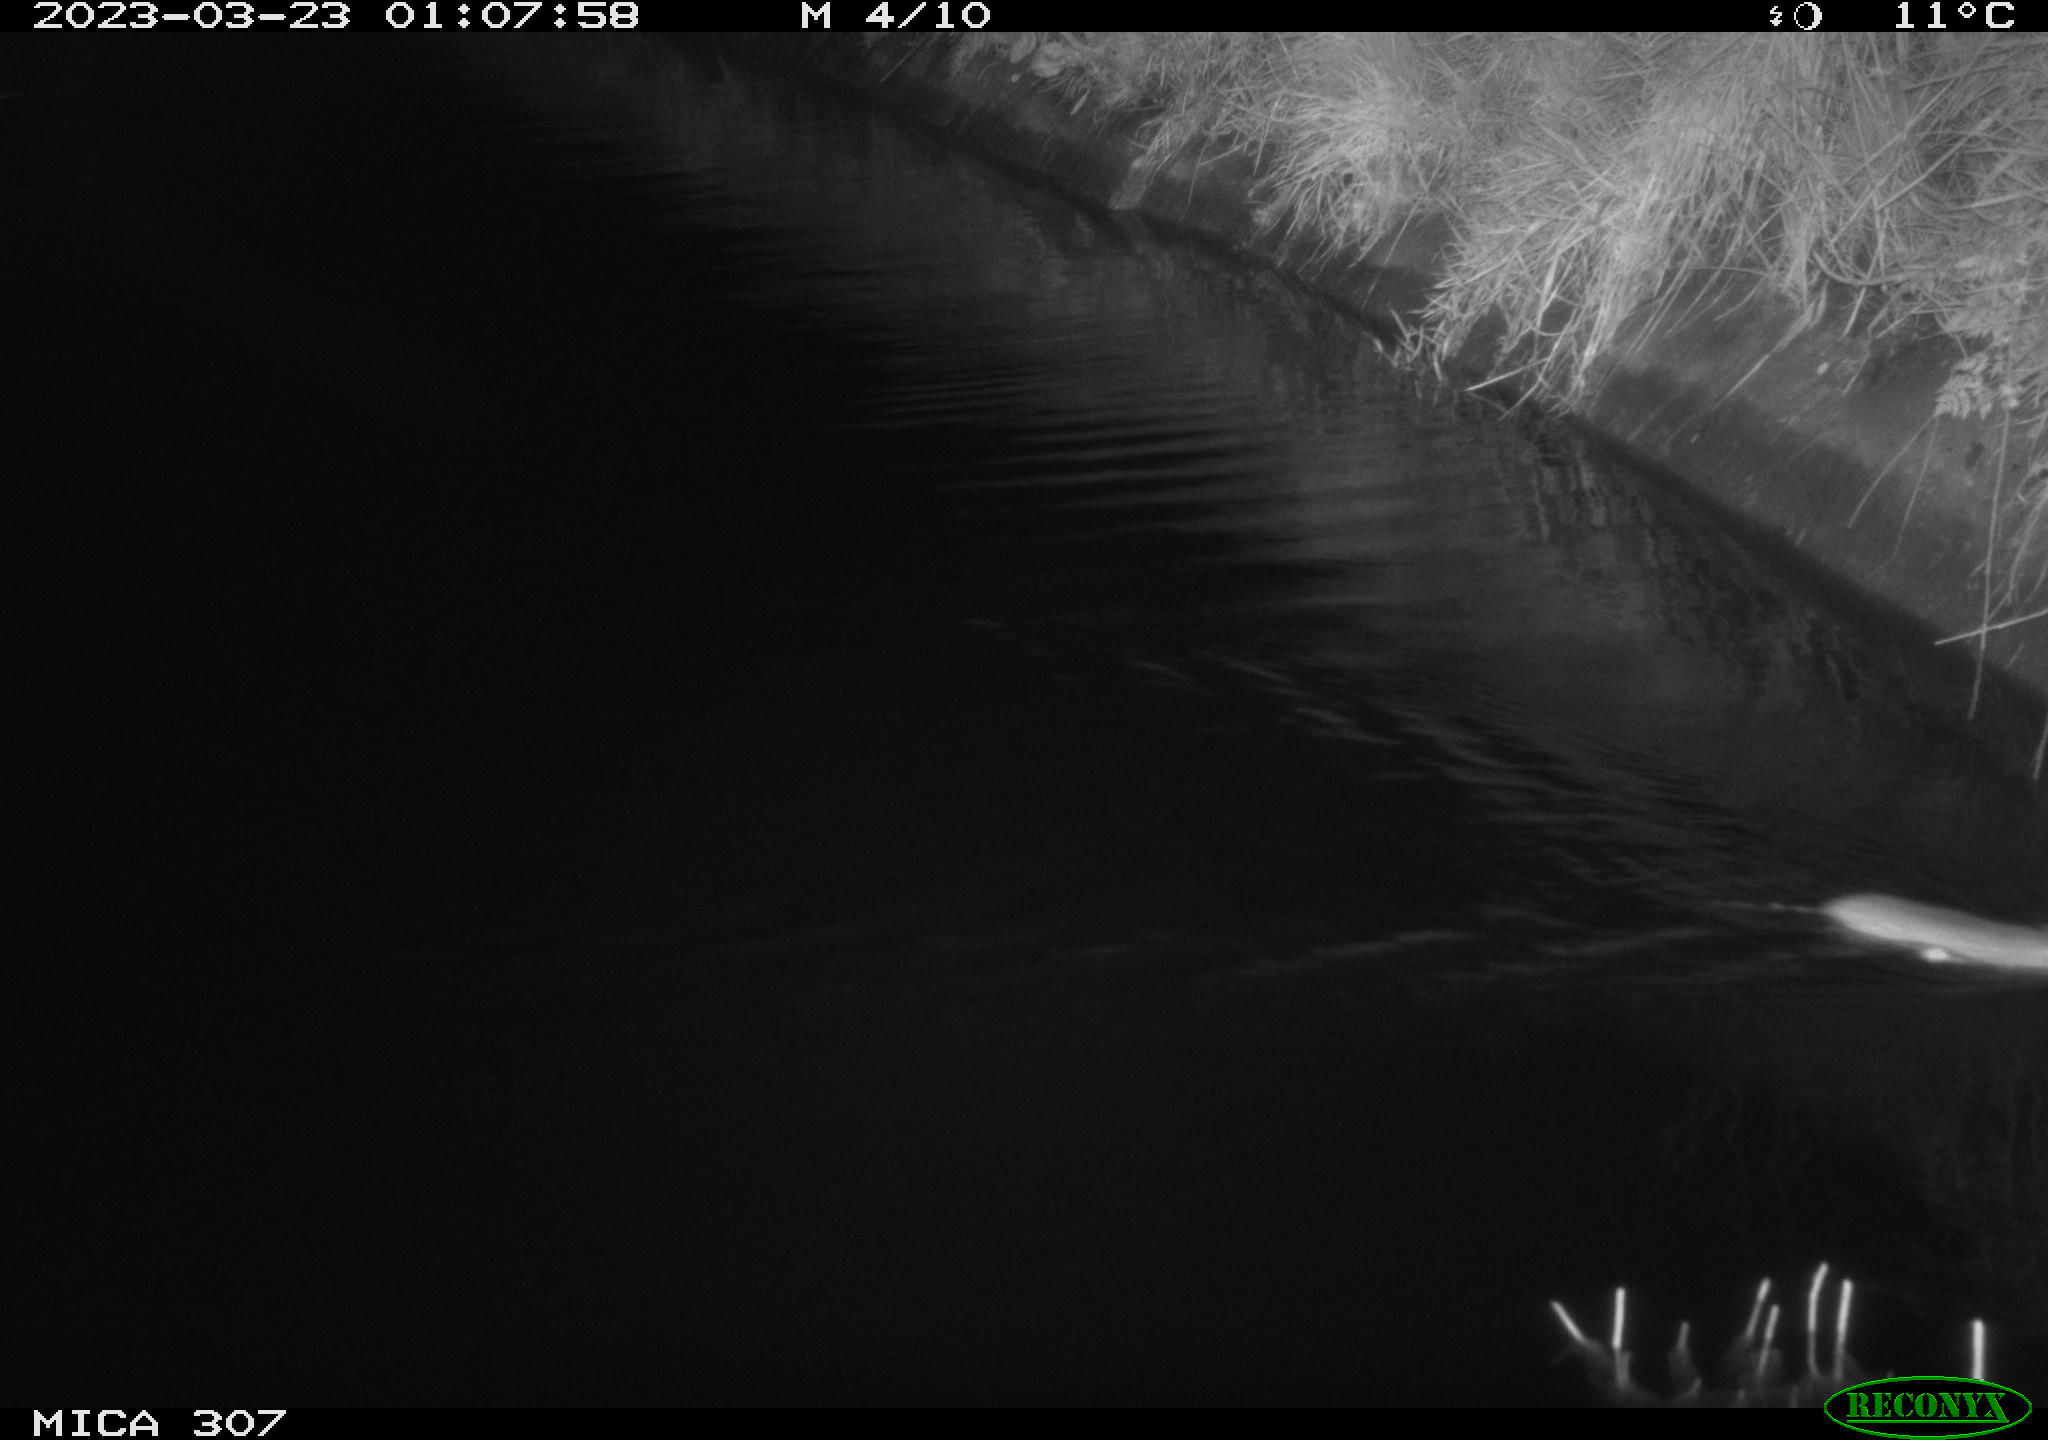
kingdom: Animalia
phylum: Chordata
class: Mammalia
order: Rodentia
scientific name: Rodentia
